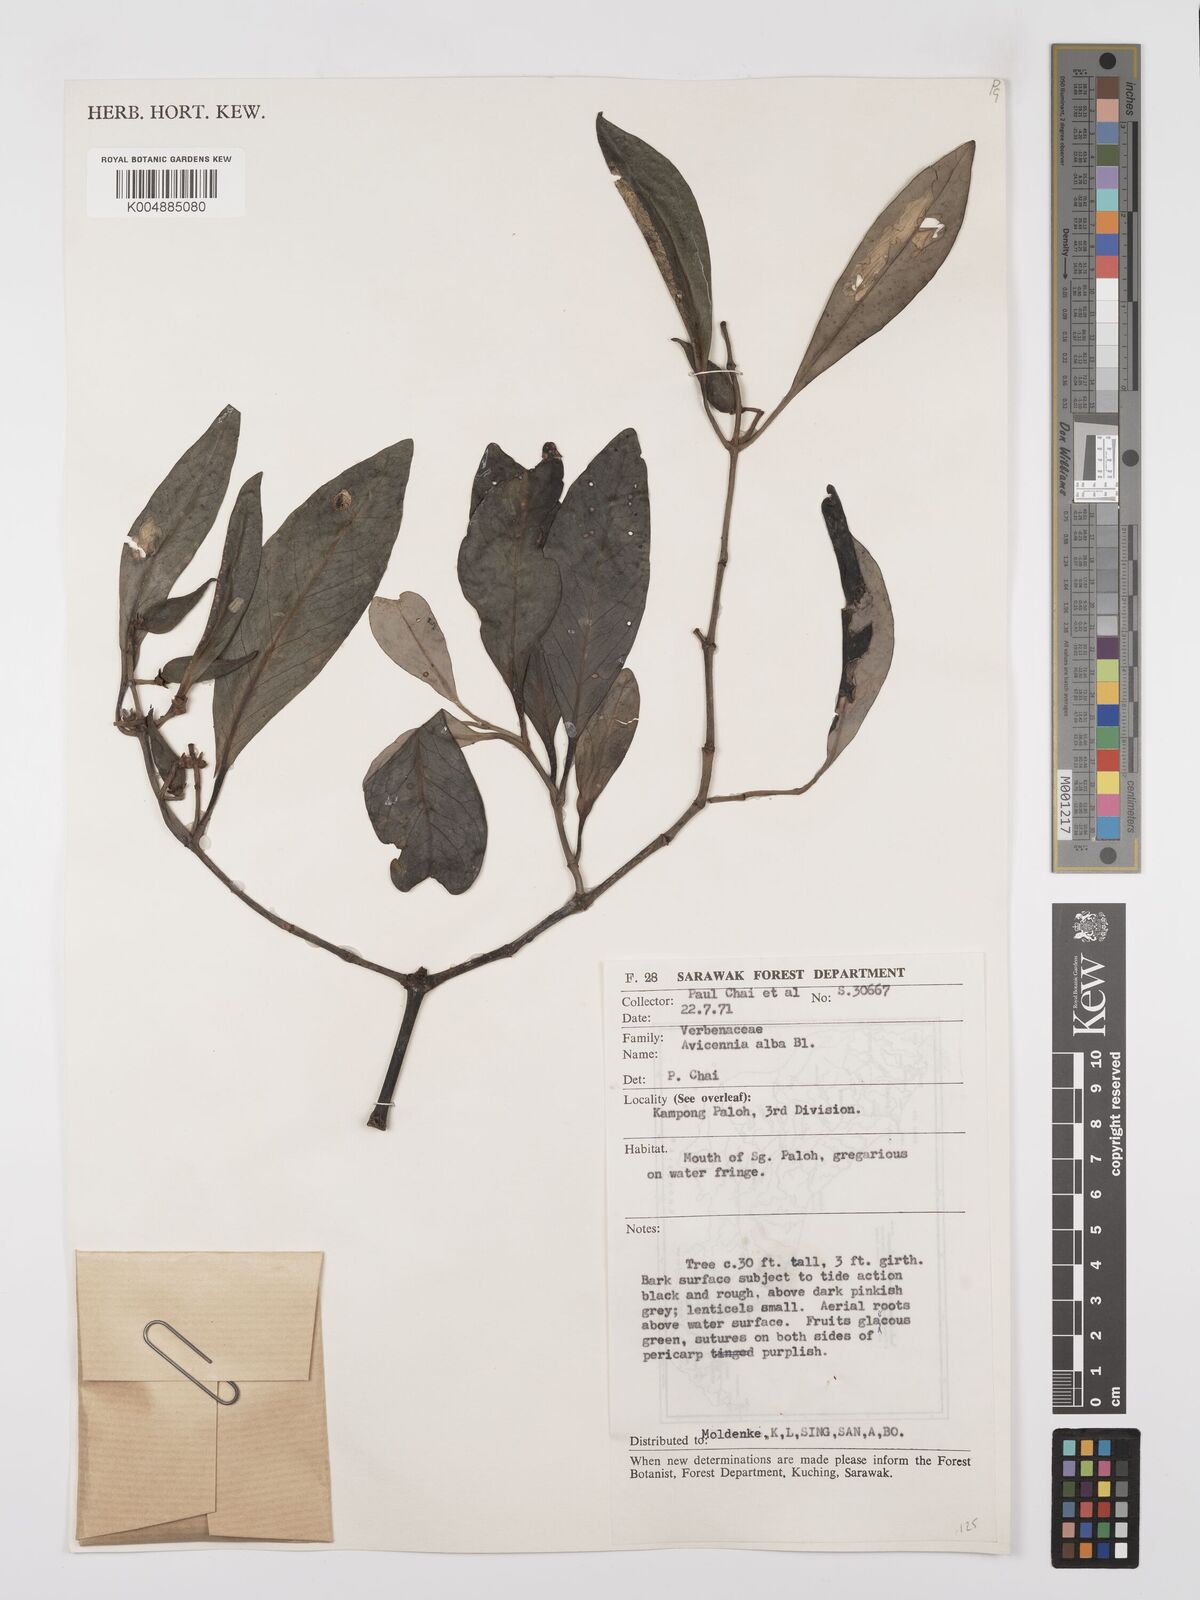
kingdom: Plantae
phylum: Tracheophyta
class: Magnoliopsida
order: Lamiales
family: Acanthaceae
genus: Avicennia
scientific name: Avicennia alba
